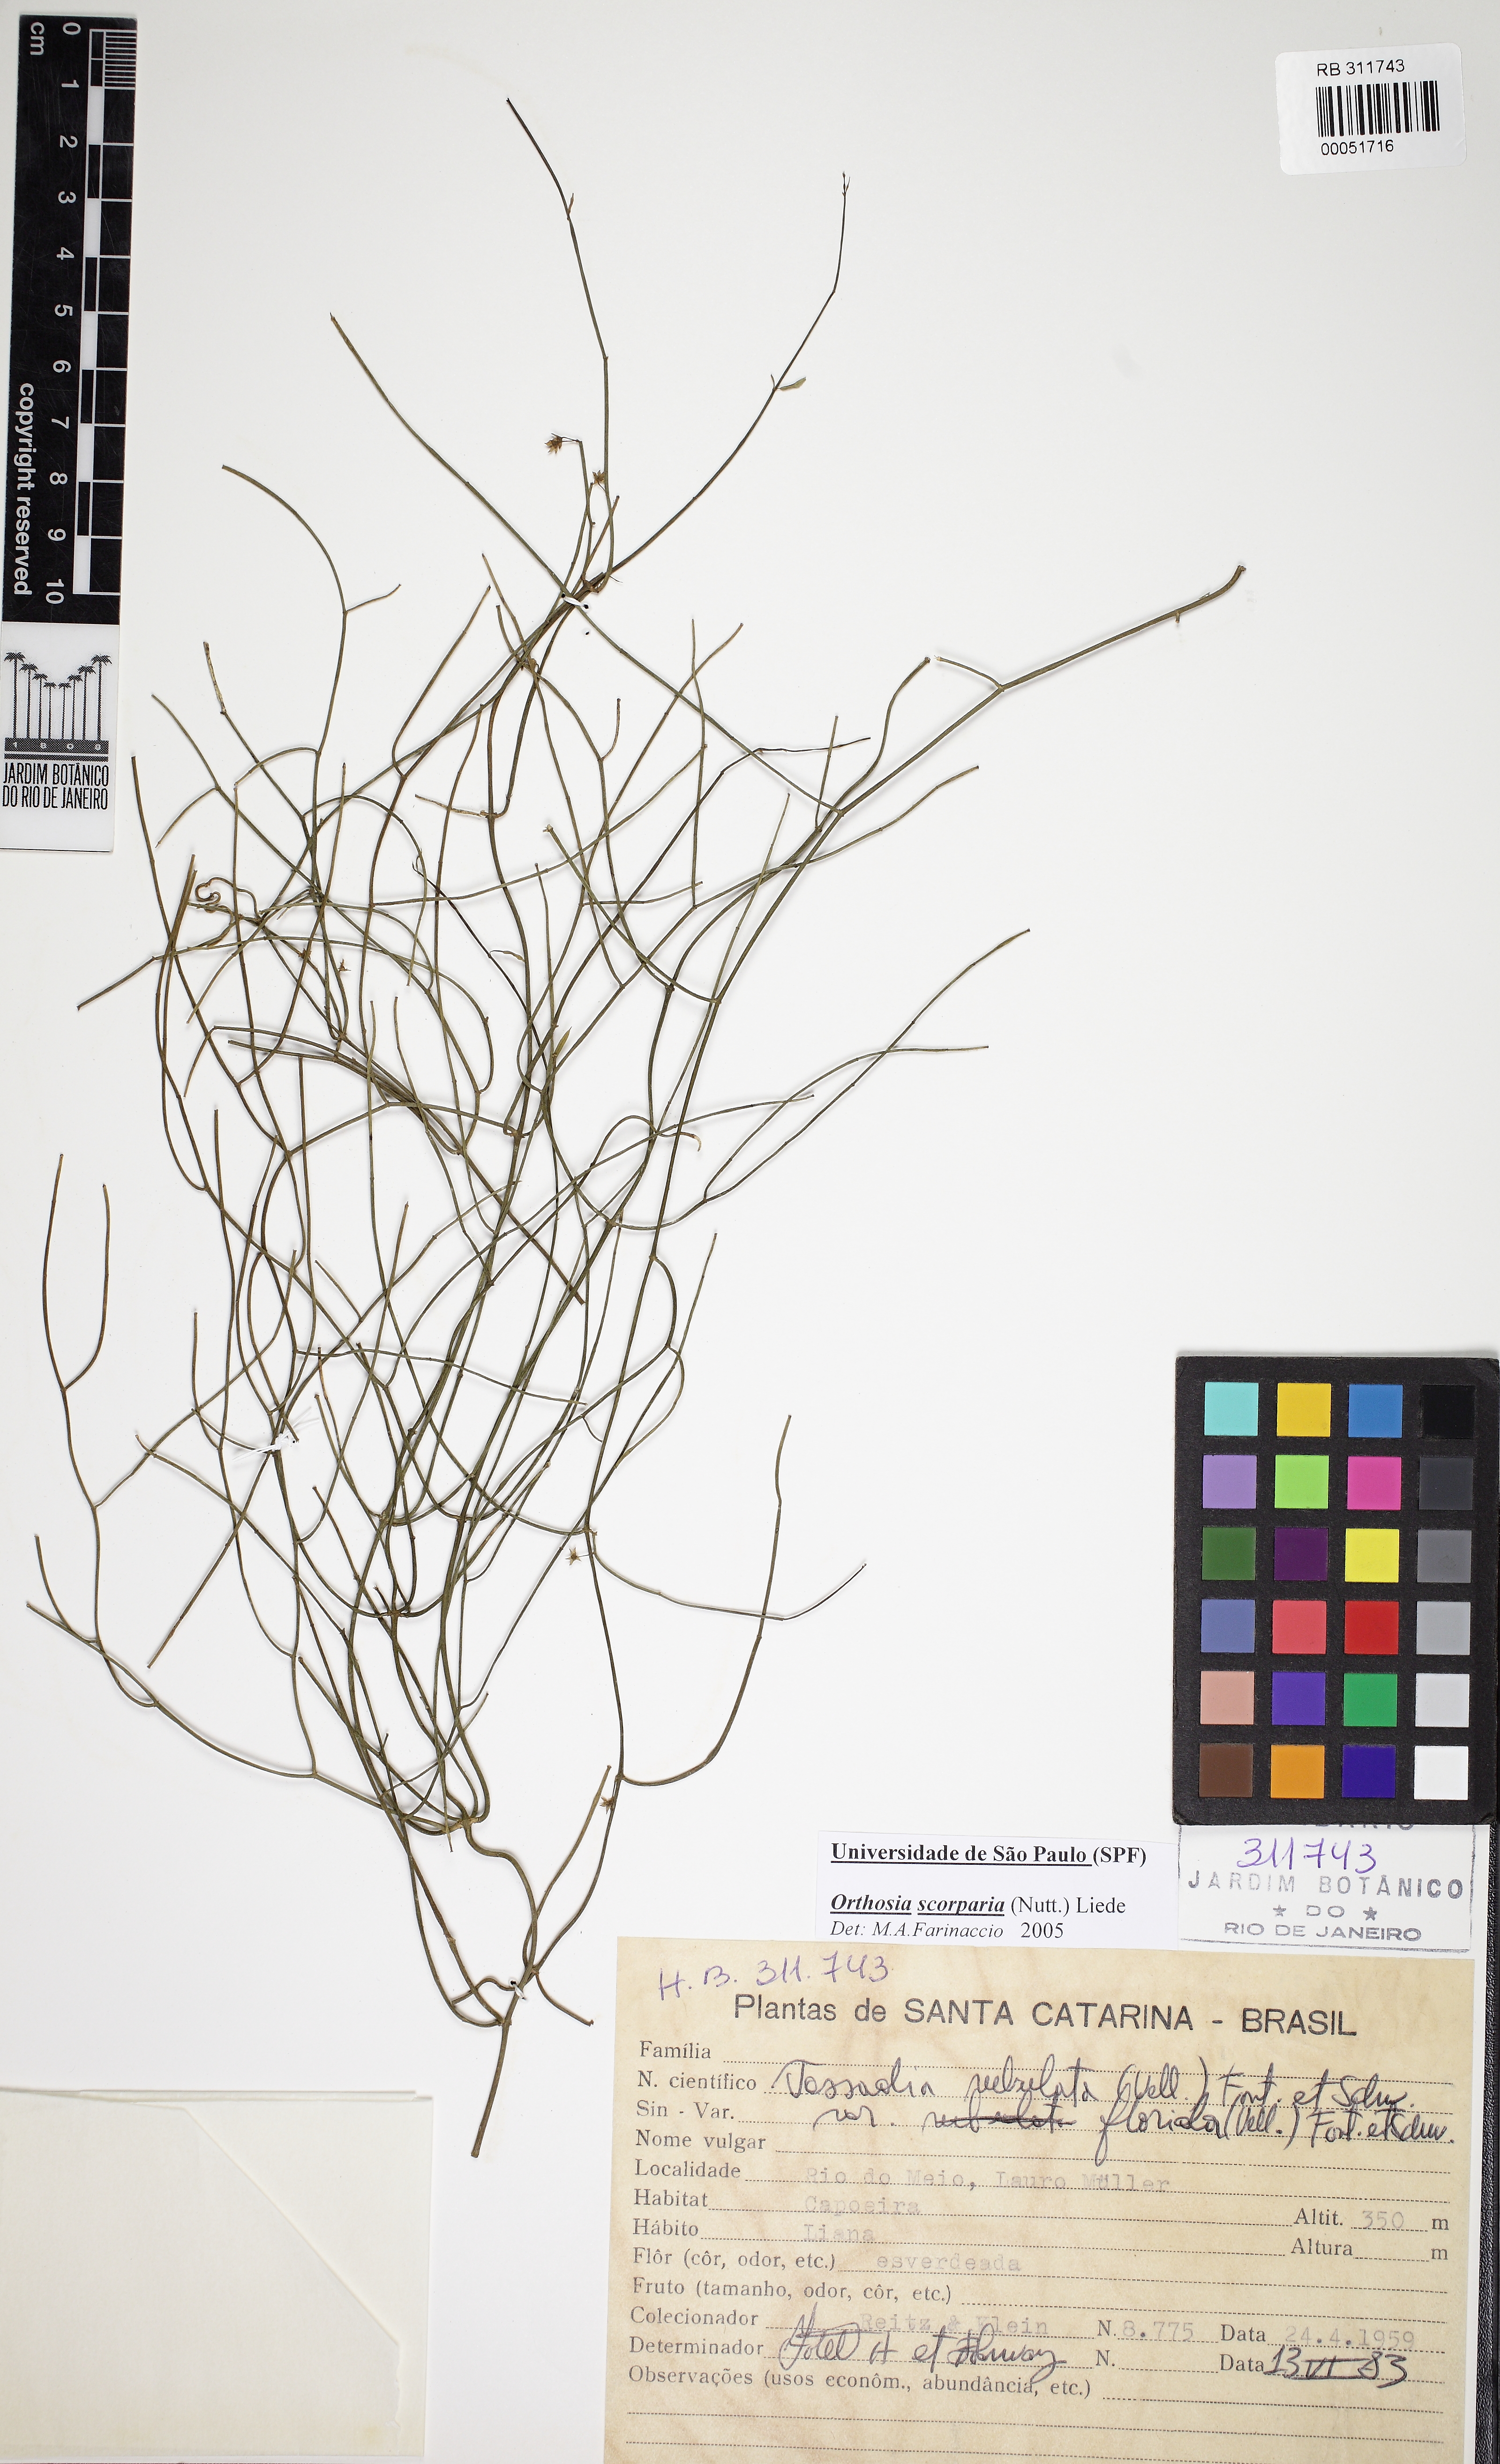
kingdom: Plantae
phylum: Tracheophyta
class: Magnoliopsida
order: Gentianales
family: Apocynaceae
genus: Orthosia
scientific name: Orthosia scoparia
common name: Leafless swallow-wort
